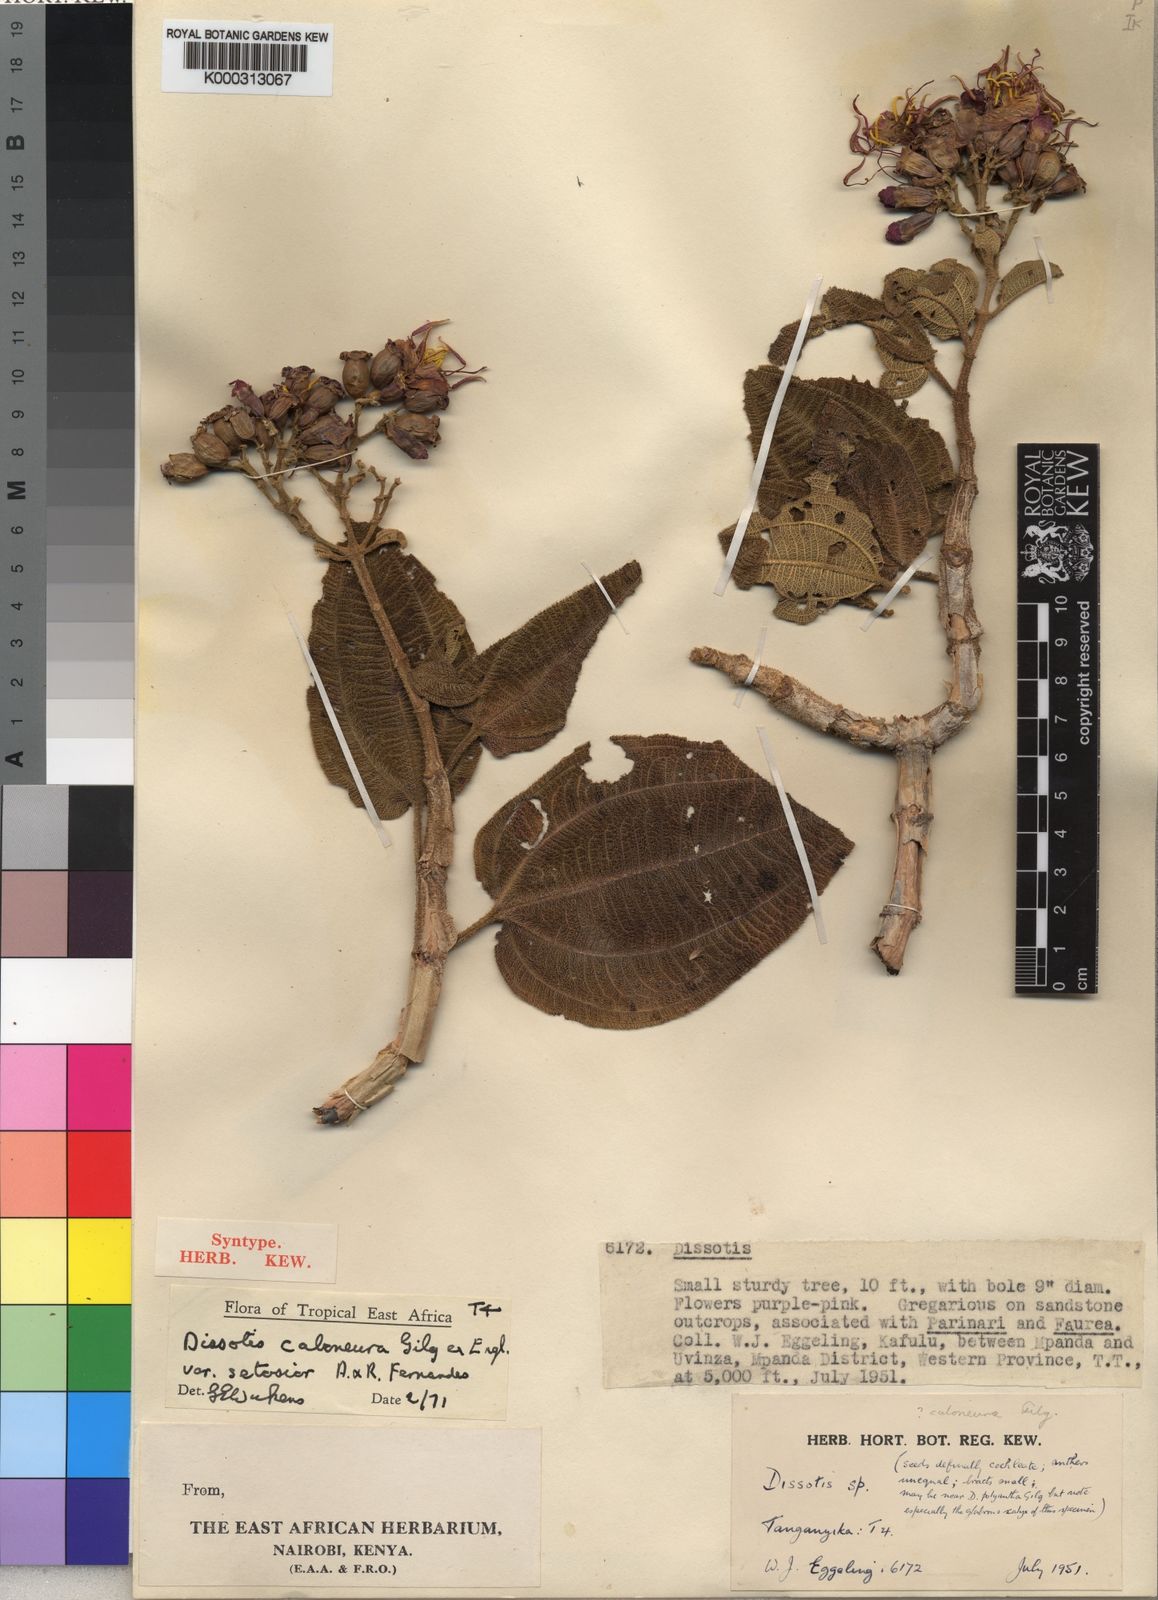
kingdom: Plantae
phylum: Tracheophyta
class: Magnoliopsida
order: Myrtales
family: Melastomataceae
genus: Dissotidendron
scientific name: Dissotidendron caloneurum
